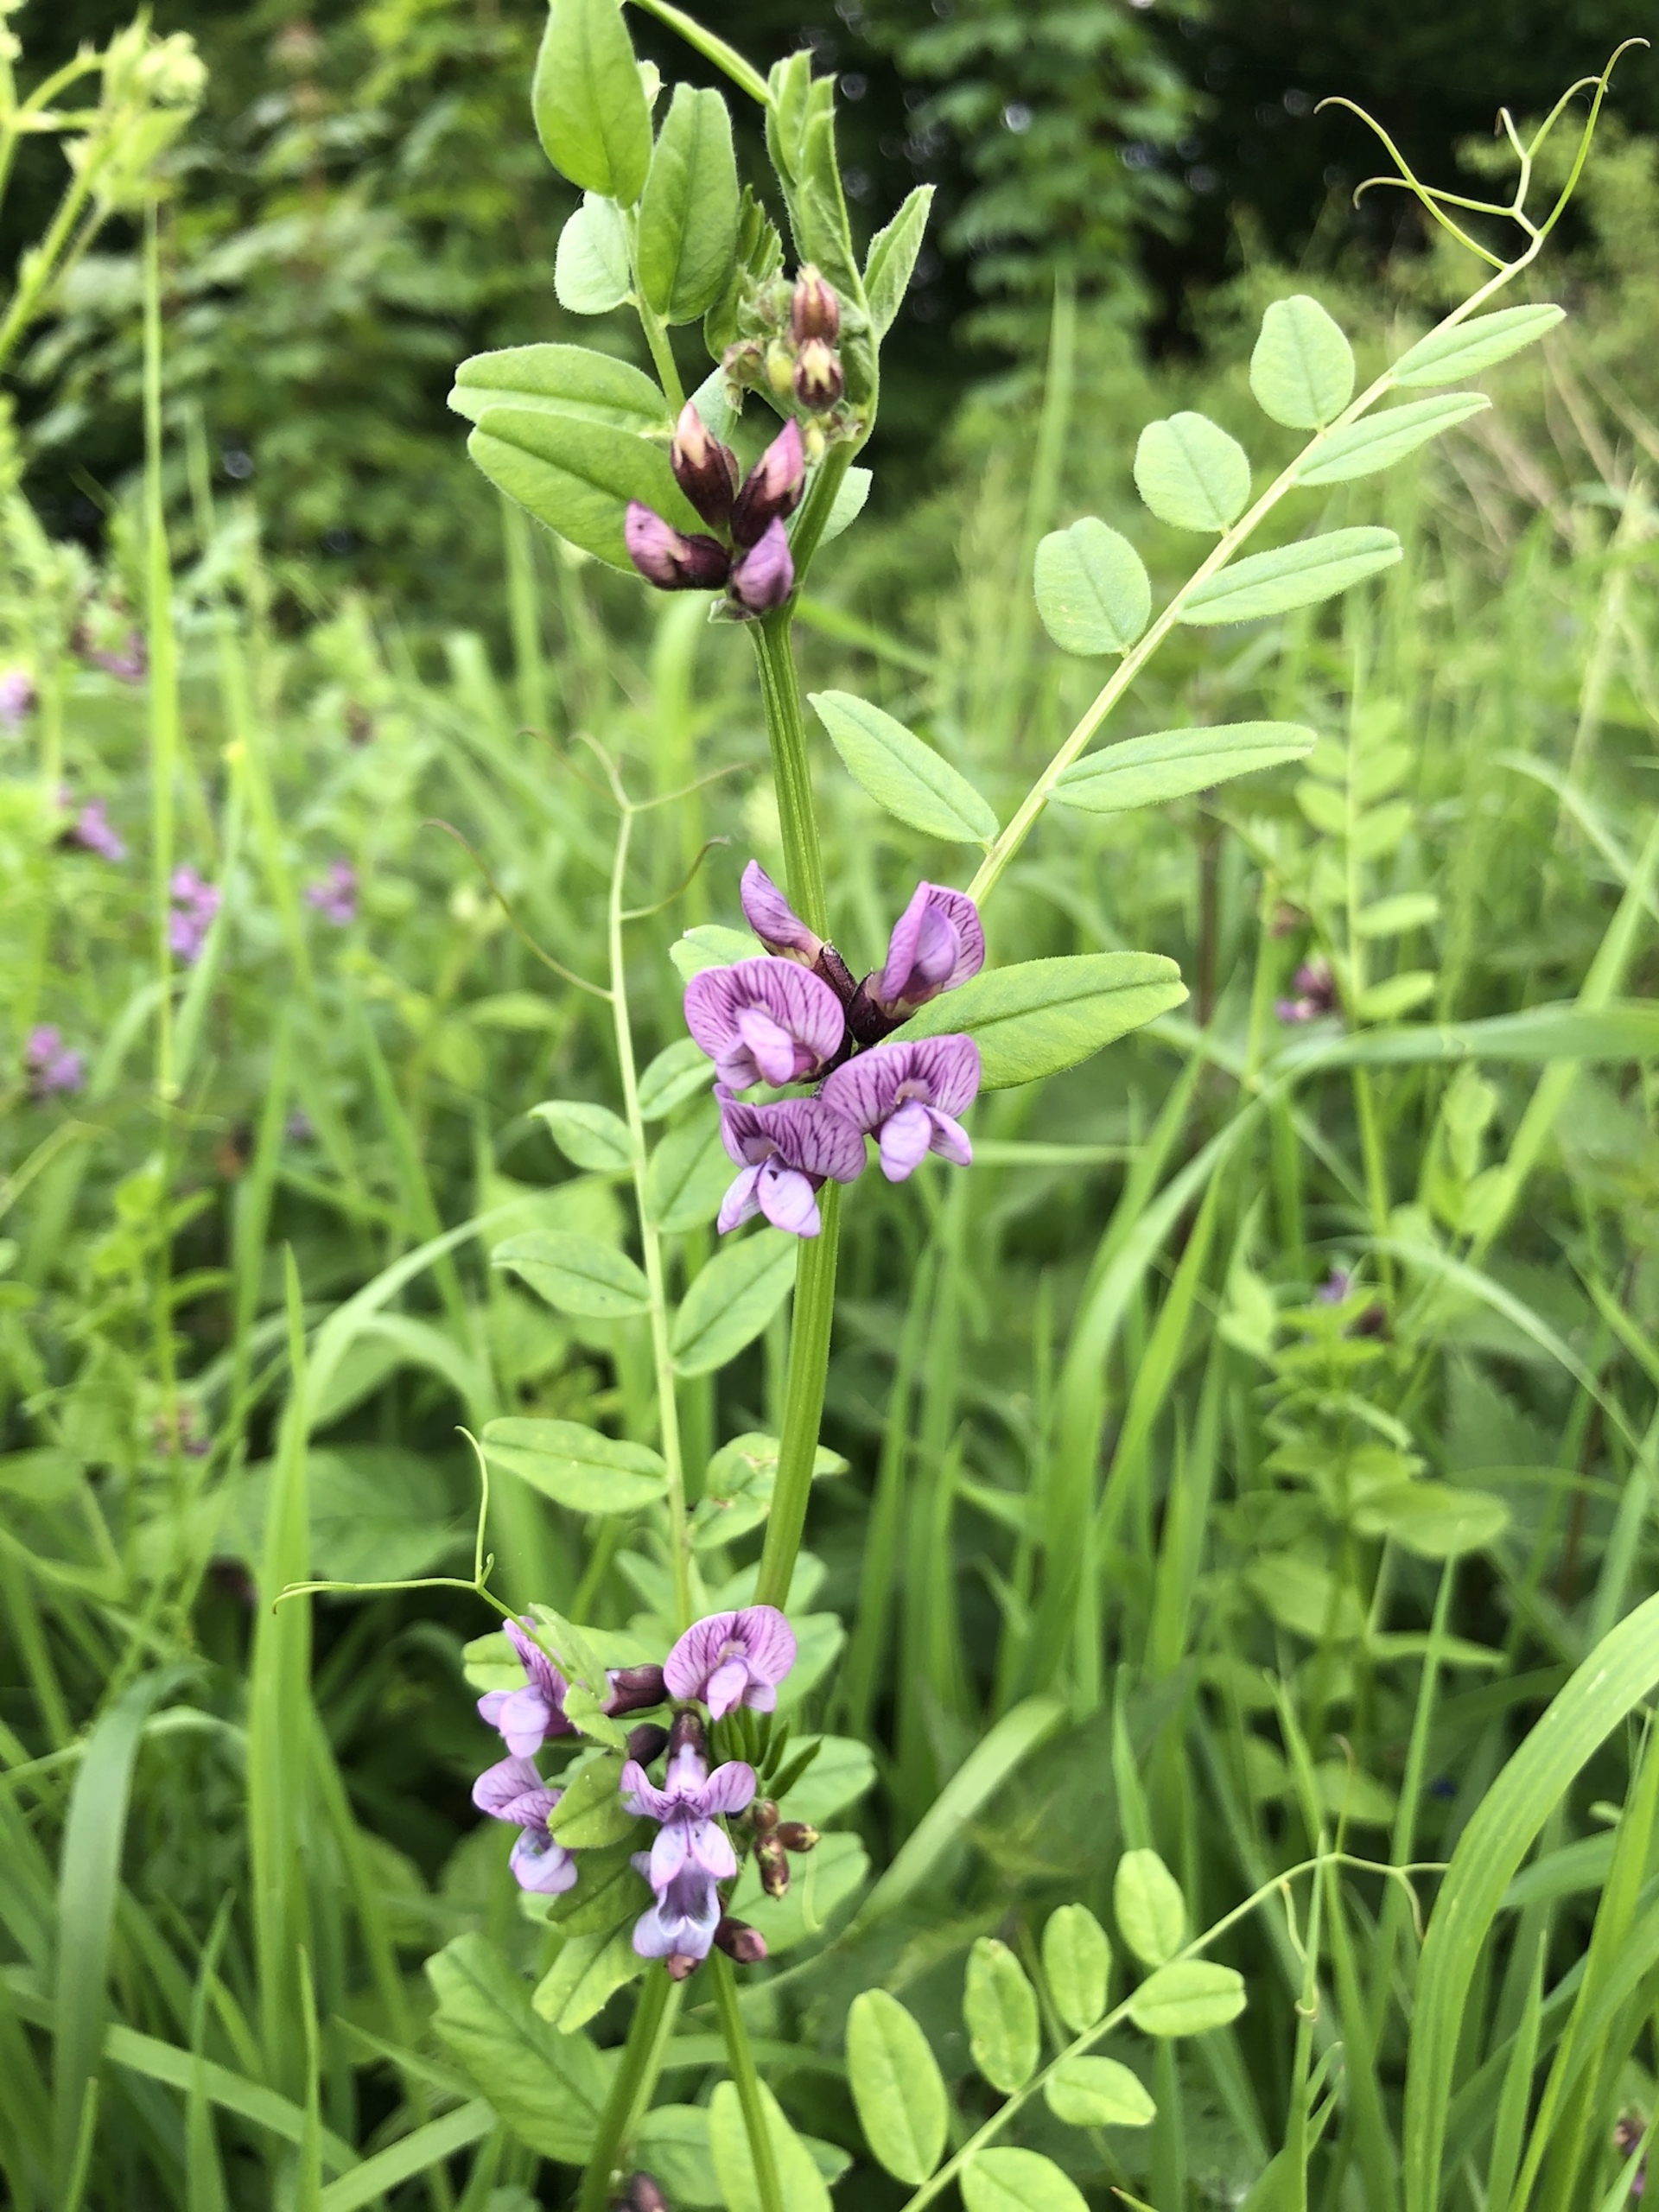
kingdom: Plantae
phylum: Tracheophyta
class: Magnoliopsida
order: Fabales
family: Fabaceae
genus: Vicia
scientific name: Vicia sepium
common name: Gærde-vikke
